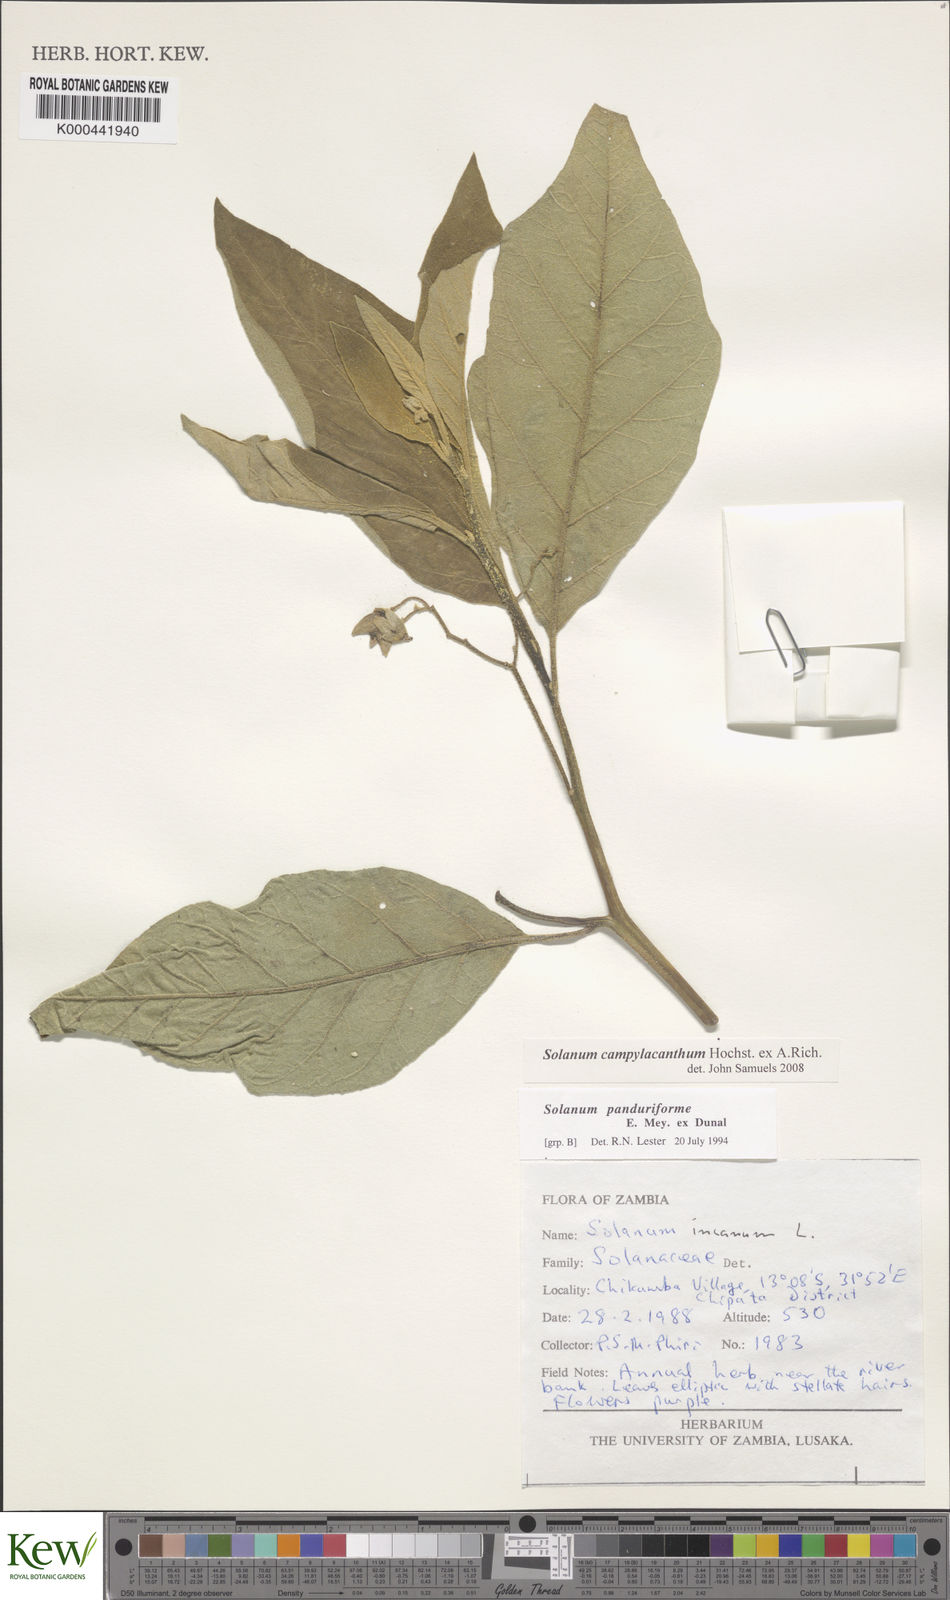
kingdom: Plantae
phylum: Tracheophyta
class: Magnoliopsida
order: Solanales
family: Solanaceae
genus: Solanum
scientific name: Solanum campylacanthum
